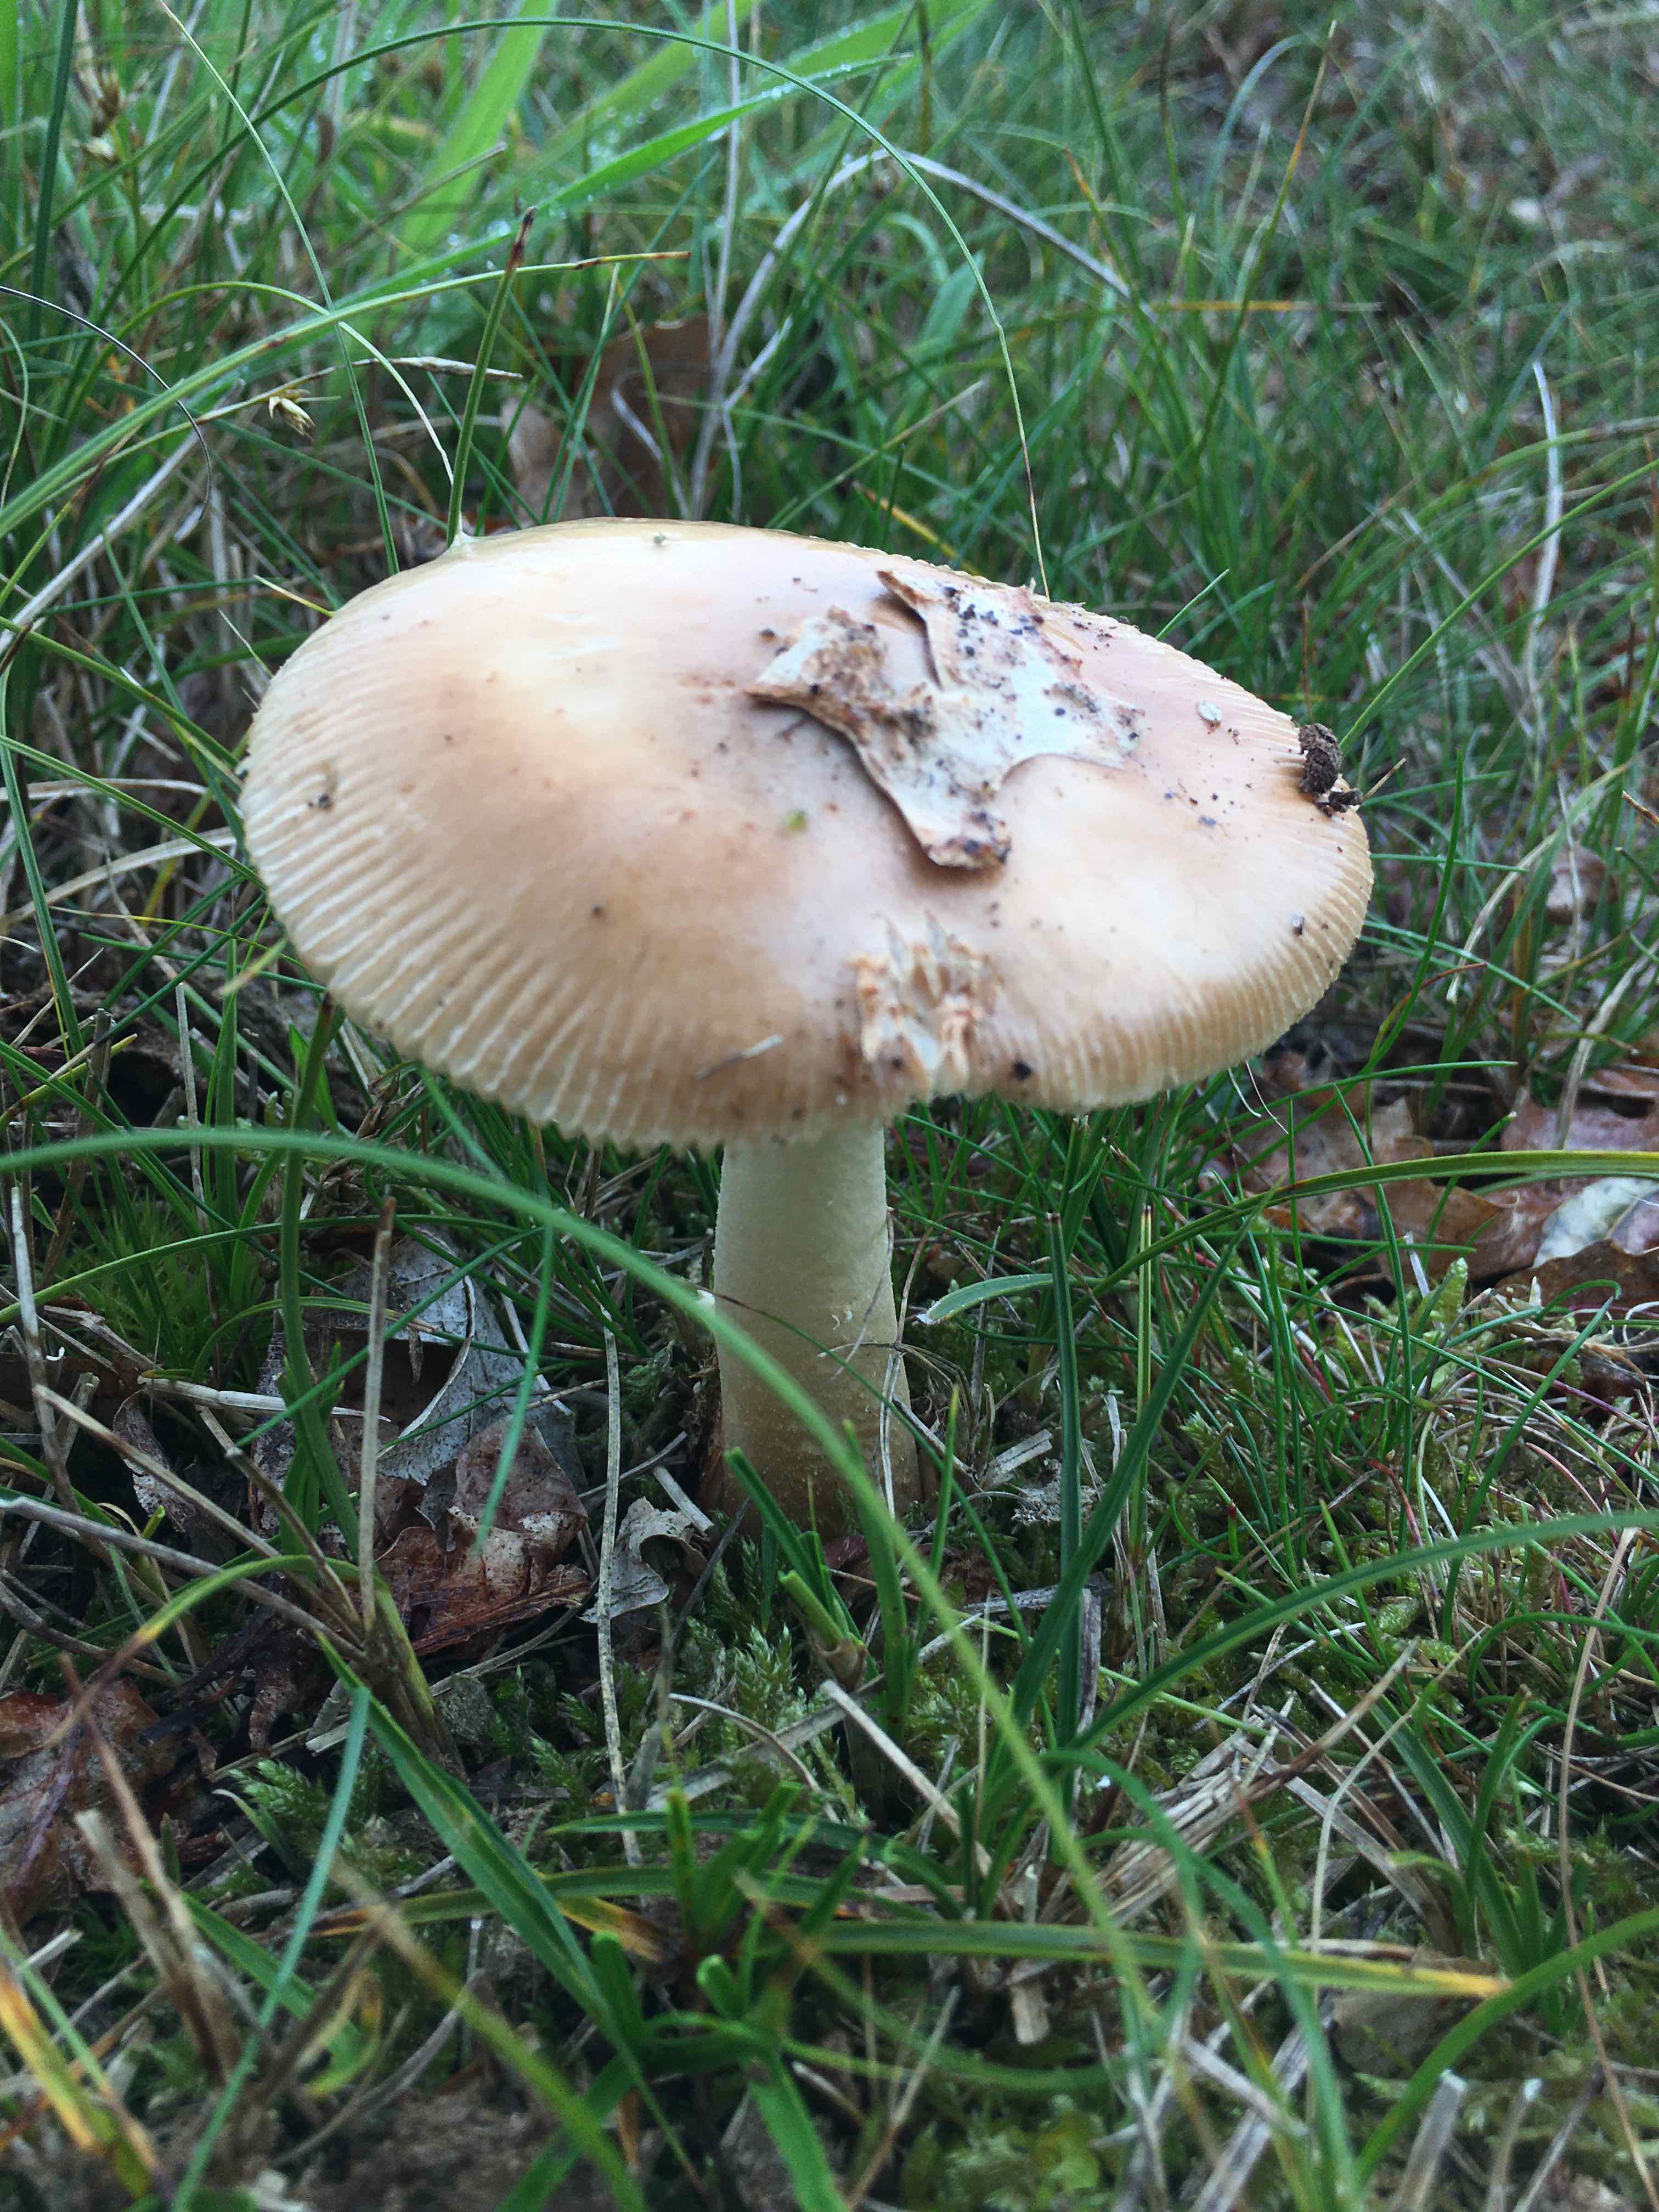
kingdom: Fungi
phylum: Basidiomycota
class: Agaricomycetes
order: Agaricales
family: Amanitaceae
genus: Amanita
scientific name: Amanita fulva
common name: brun kam-fluesvamp
